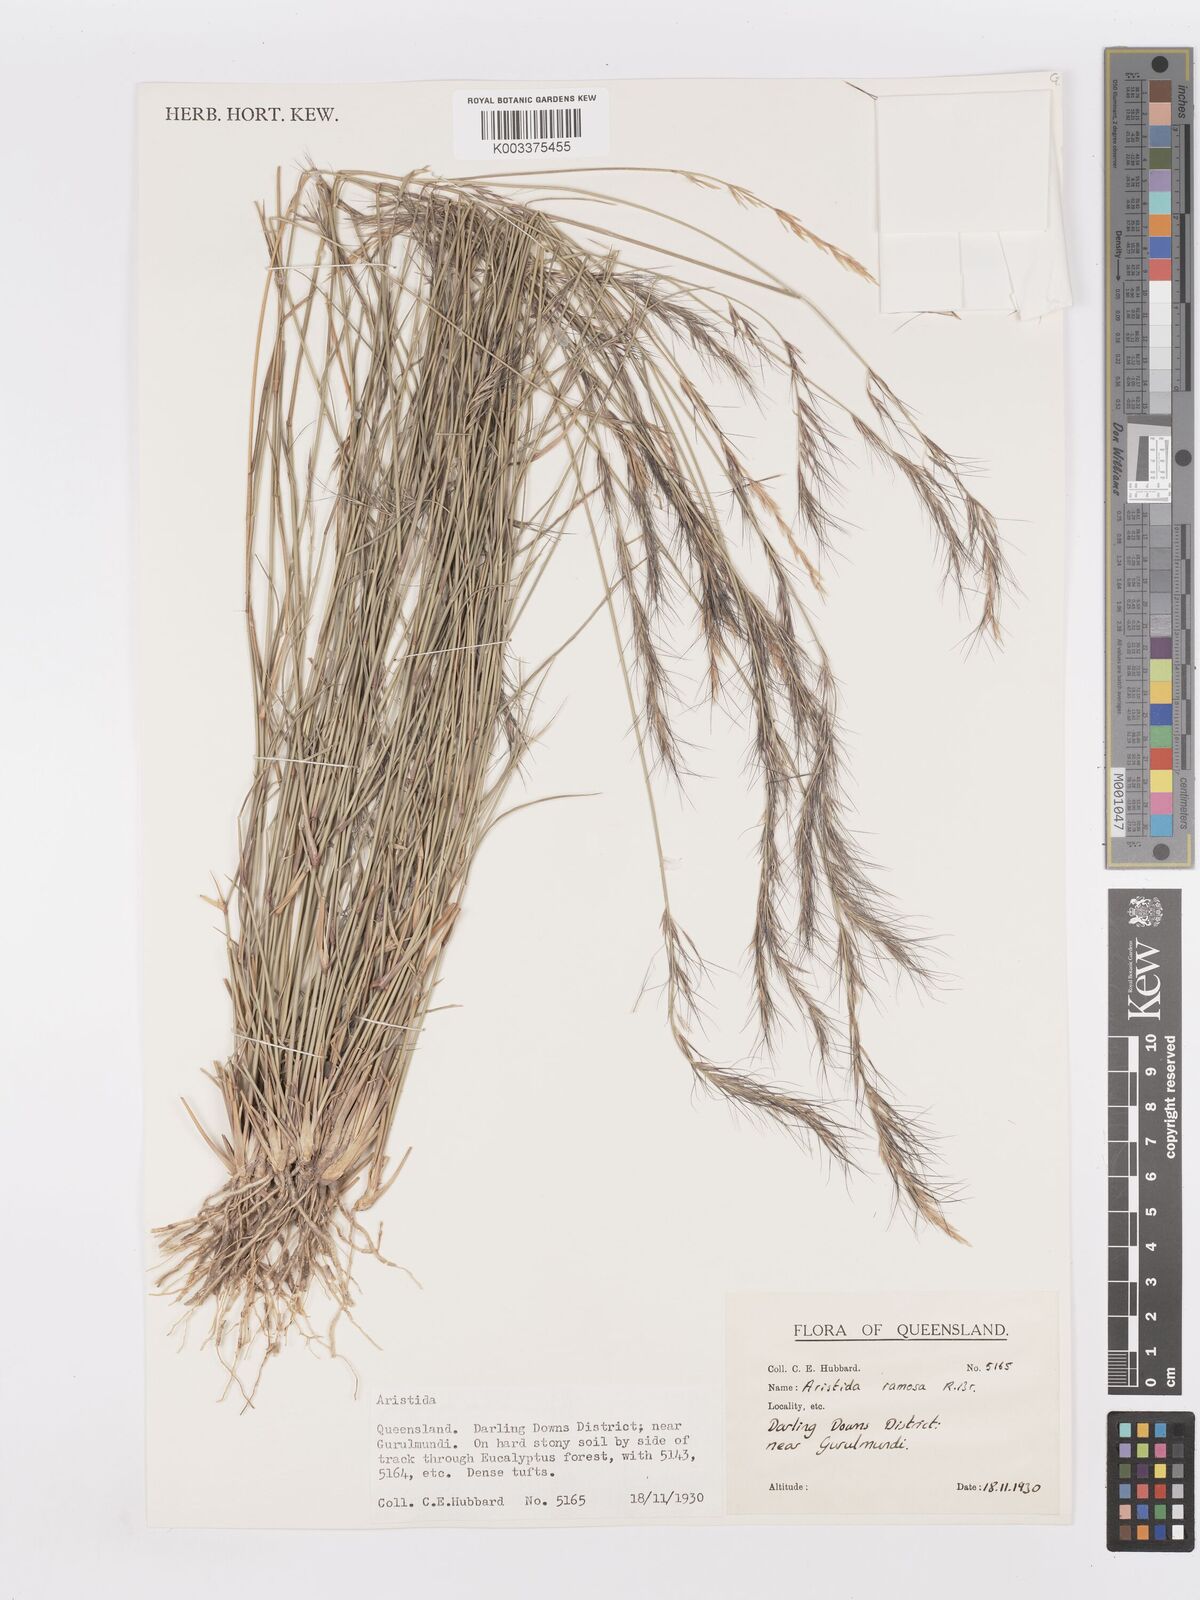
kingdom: Plantae
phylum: Tracheophyta
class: Liliopsida
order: Poales
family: Poaceae
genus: Aristida
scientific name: Aristida ramosa
